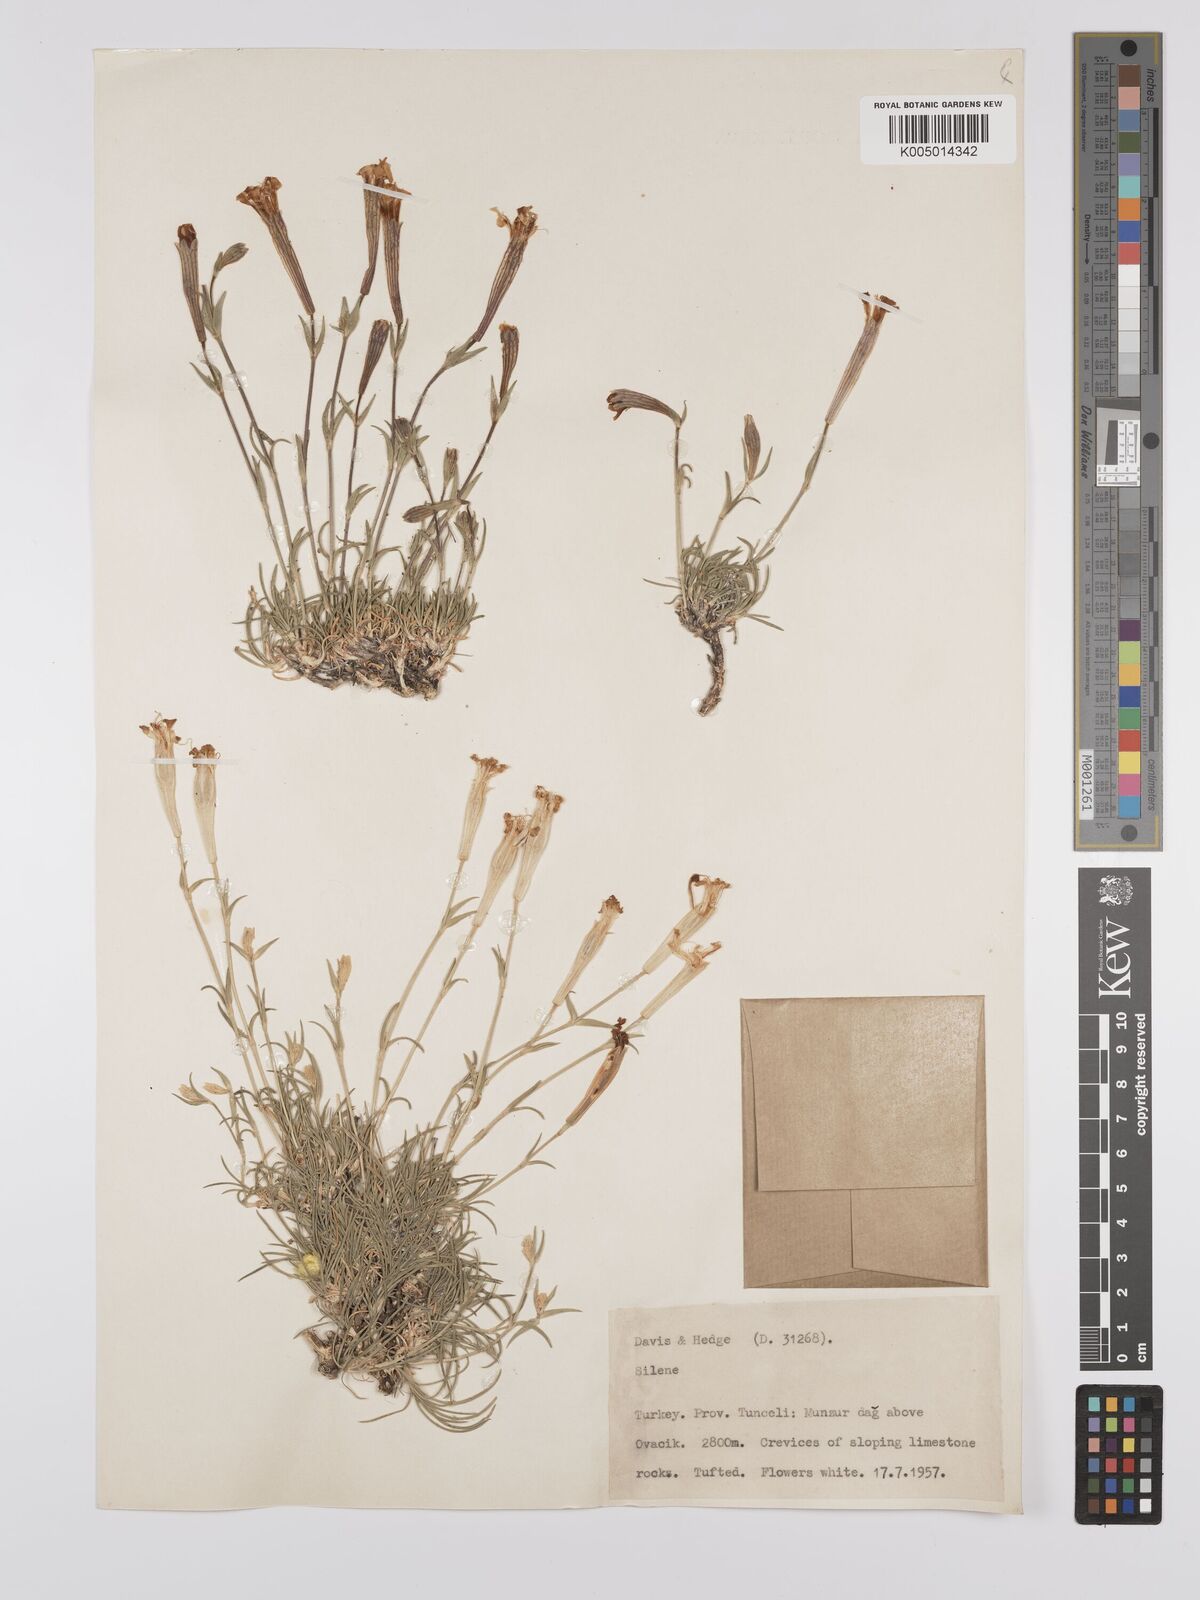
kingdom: Plantae
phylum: Tracheophyta
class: Magnoliopsida
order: Caryophyllales
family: Caryophyllaceae
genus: Silene
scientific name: Silene
